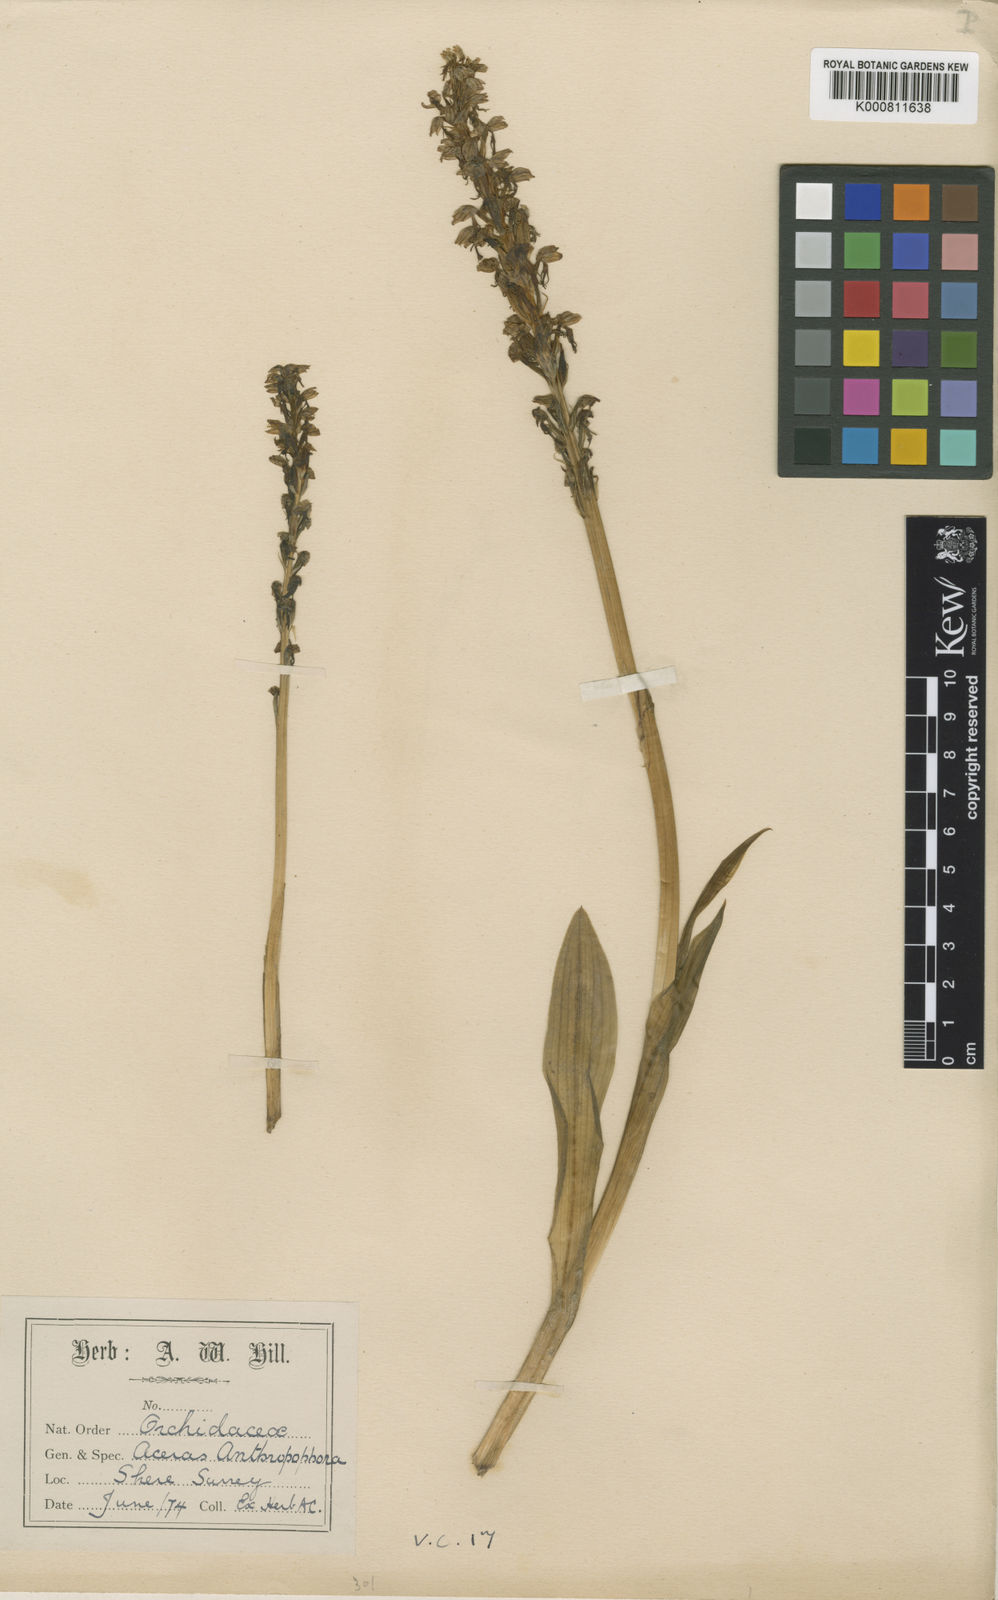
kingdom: Plantae
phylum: Tracheophyta
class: Liliopsida
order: Asparagales
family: Orchidaceae
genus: Orchis
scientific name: Orchis
